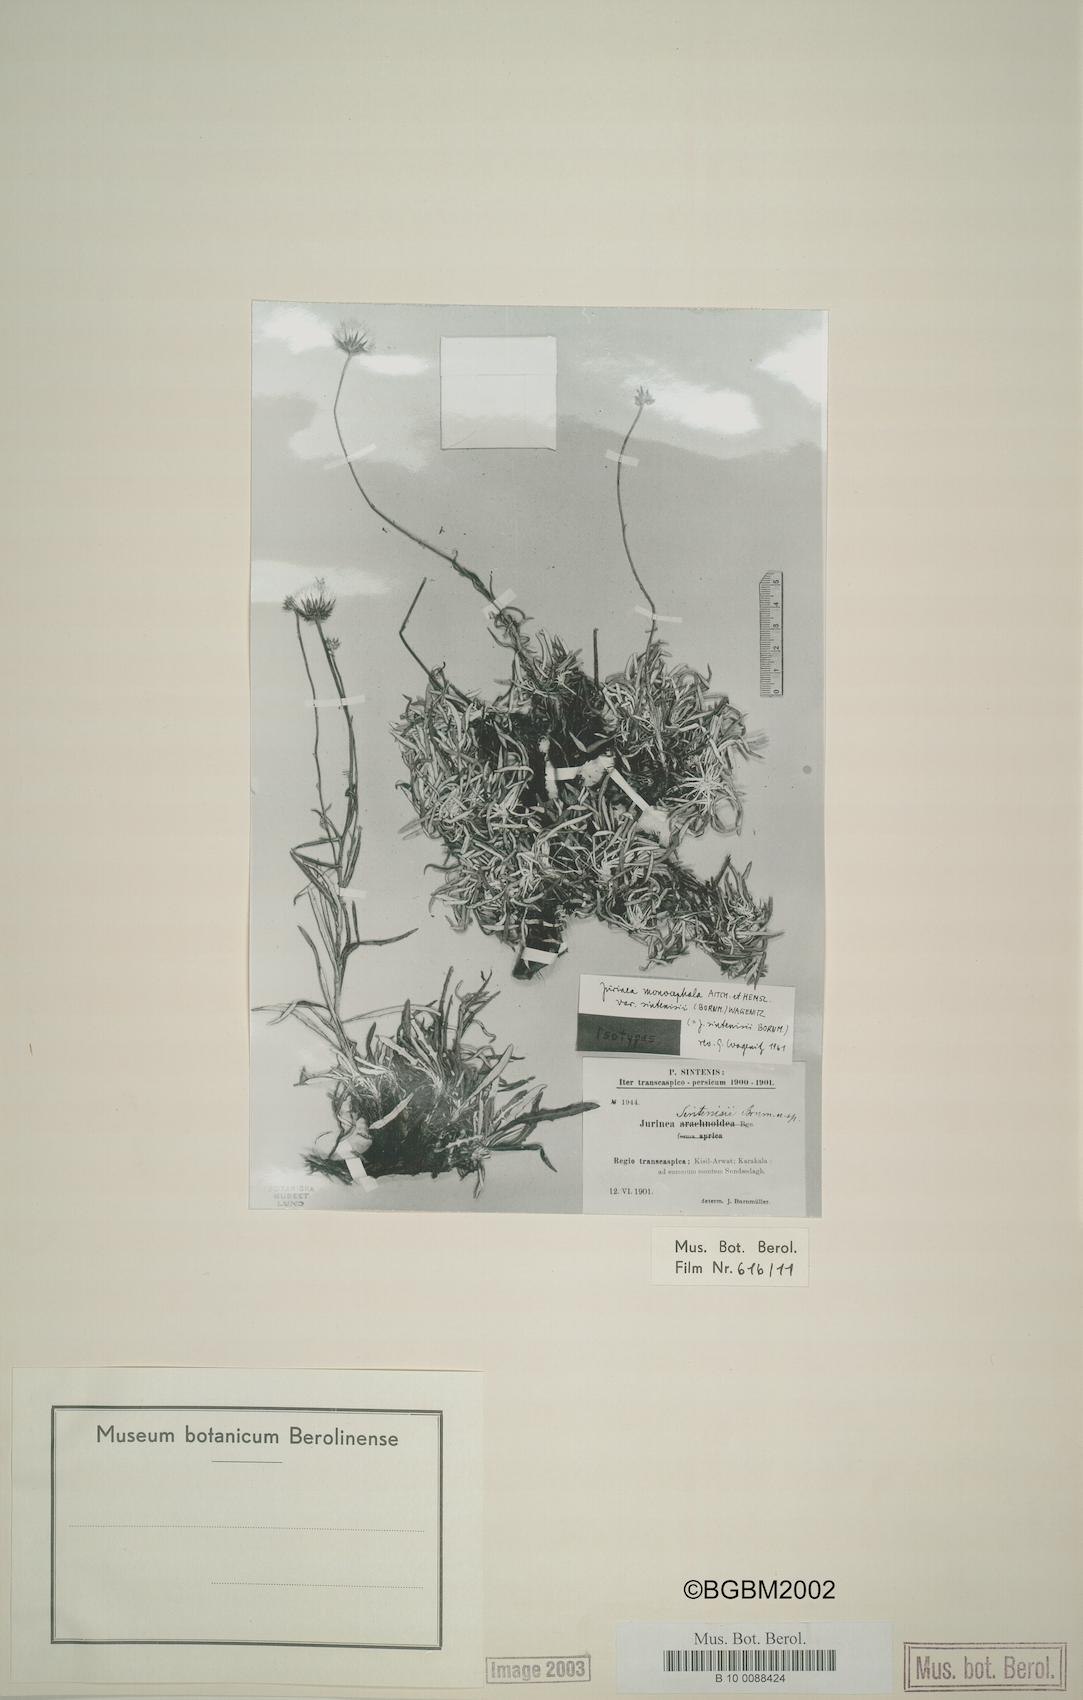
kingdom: Plantae
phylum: Tracheophyta
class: Magnoliopsida
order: Asterales
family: Asteraceae
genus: Jurinea
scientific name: Jurinea monocephala
